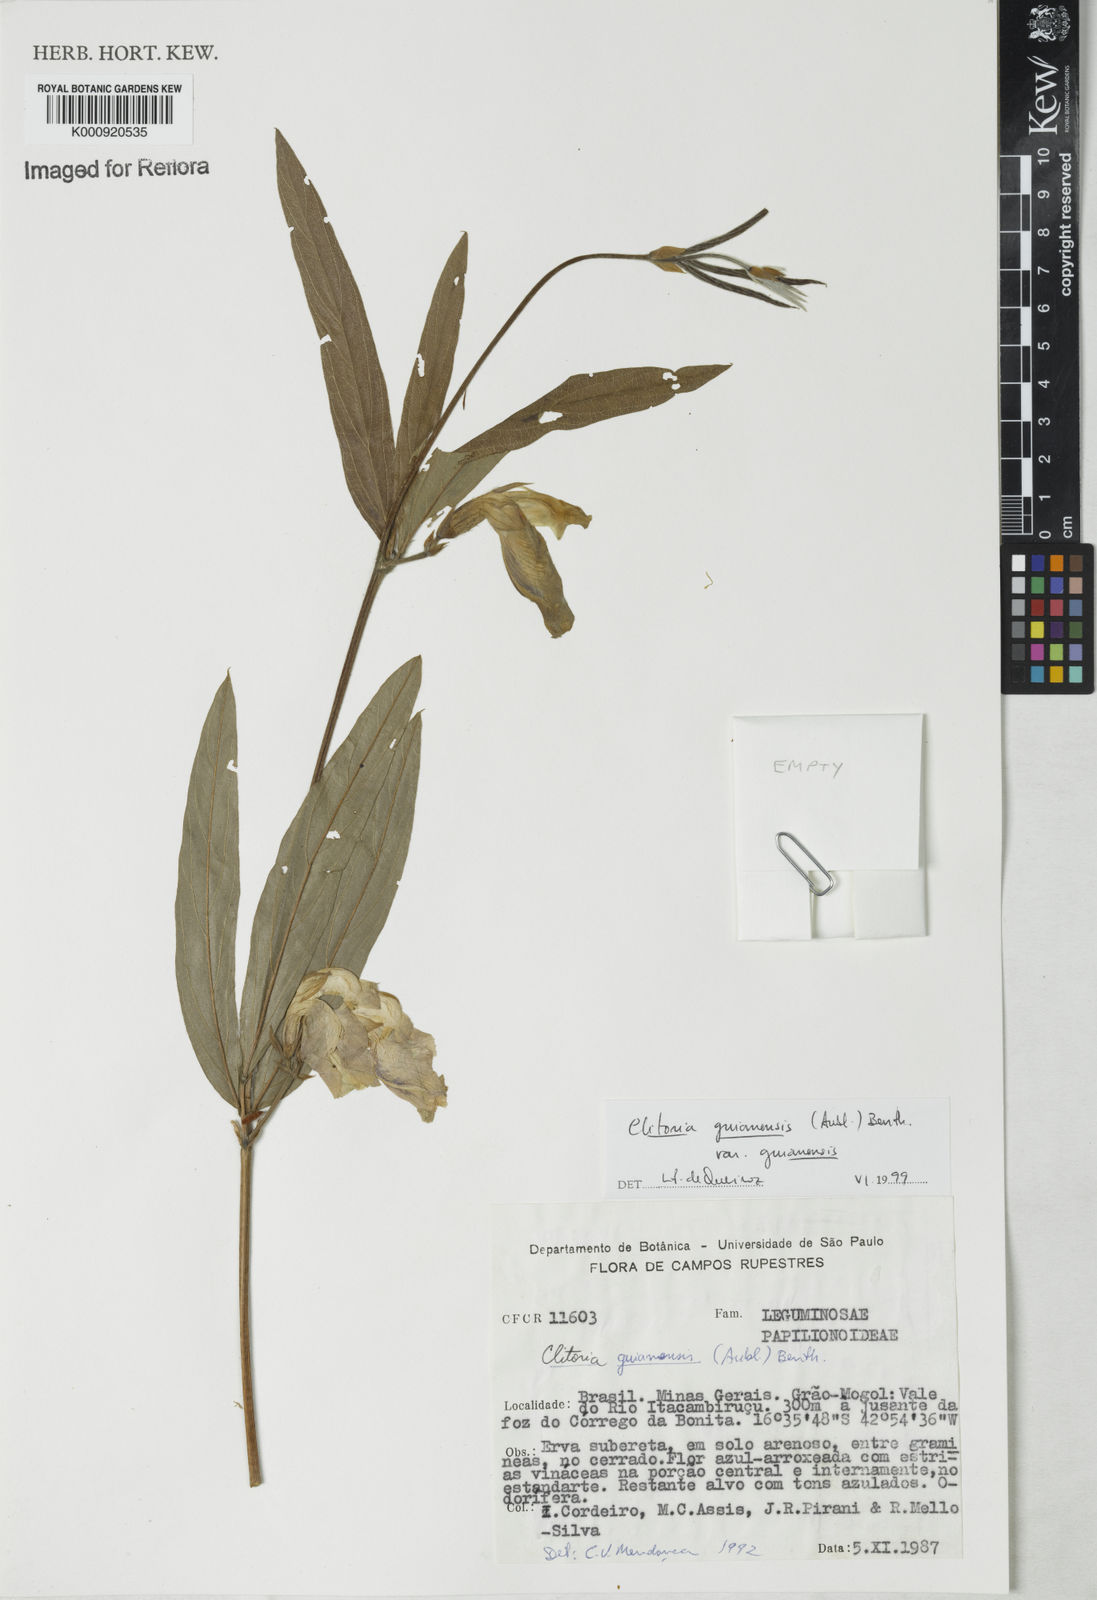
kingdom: Plantae
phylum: Tracheophyta
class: Magnoliopsida
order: Fabales
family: Fabaceae
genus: Clitoria
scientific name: Clitoria guianensis
